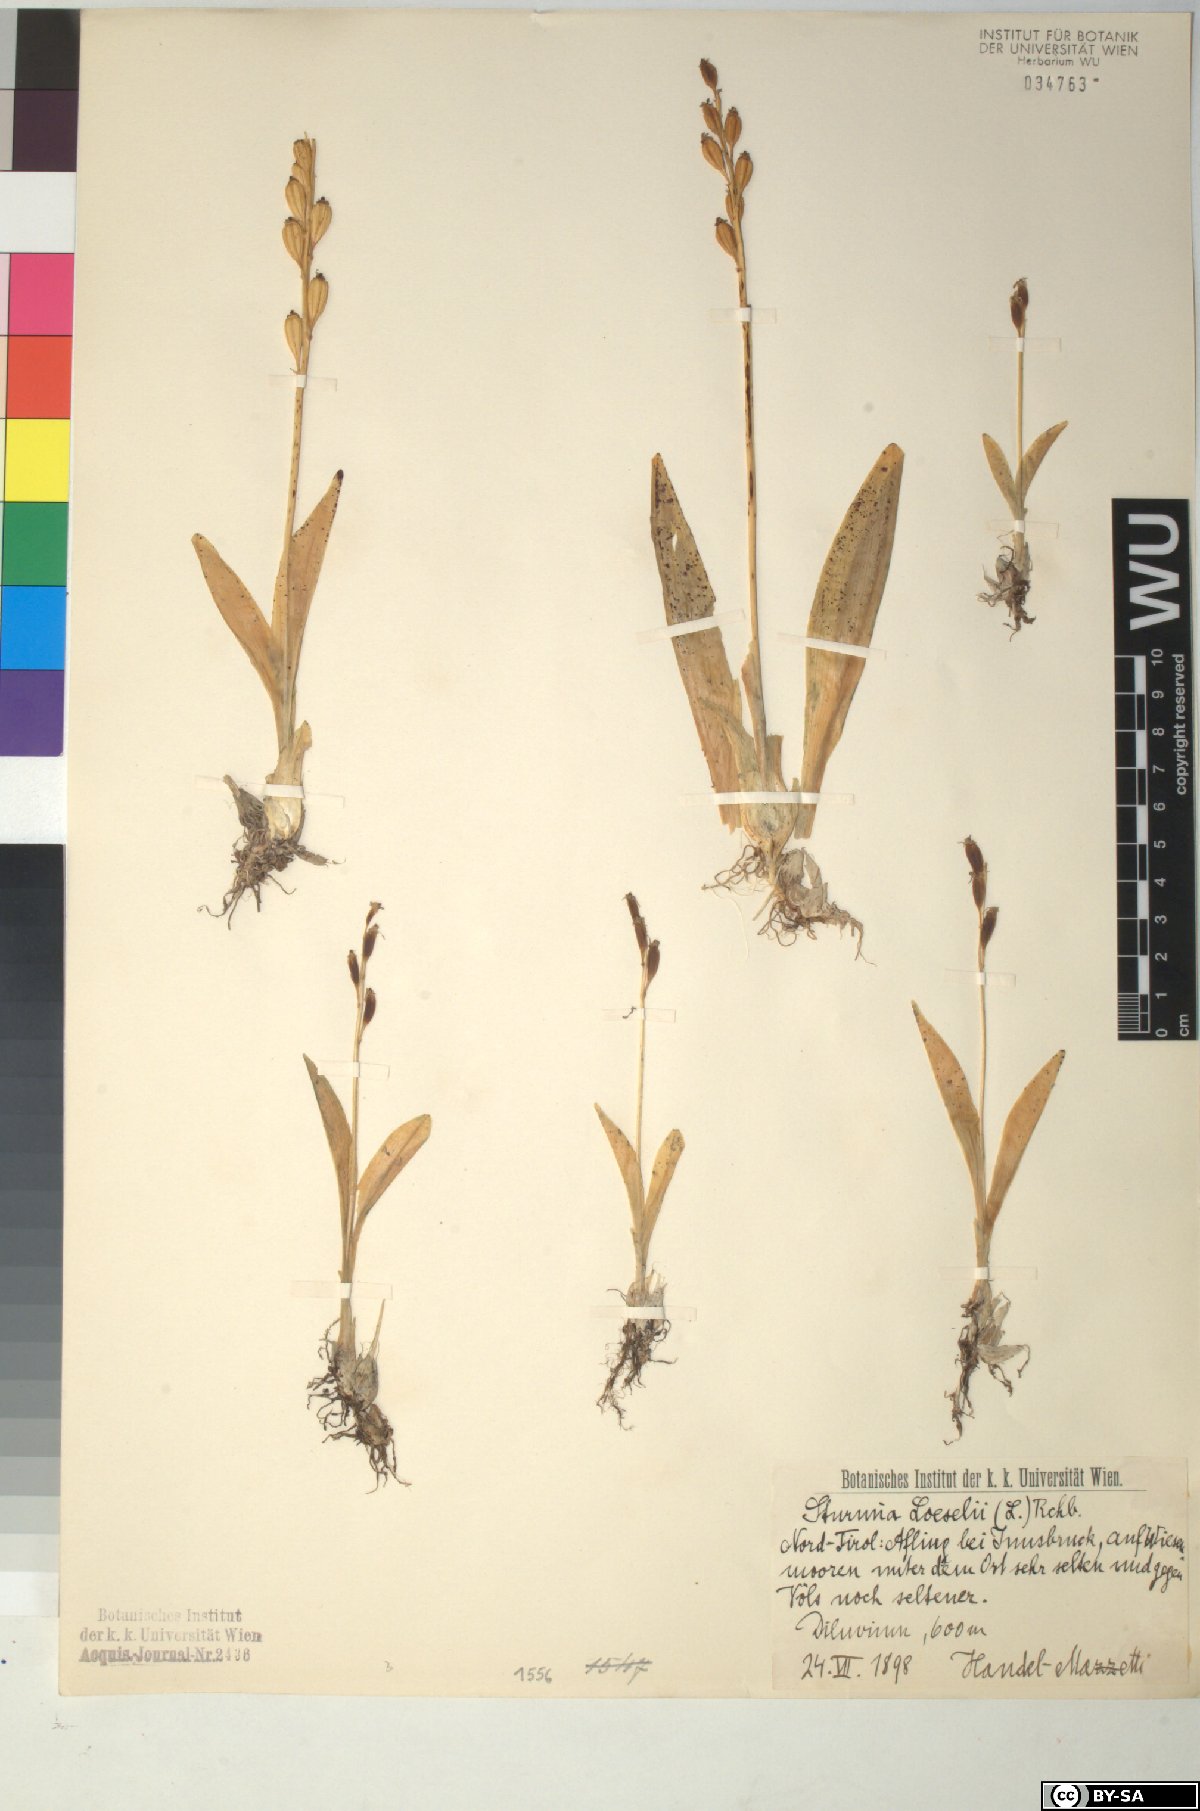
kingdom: Animalia
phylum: Arthropoda
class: Insecta
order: Coleoptera
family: Curculionidae
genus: Liparis
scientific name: Liparis loeselii
